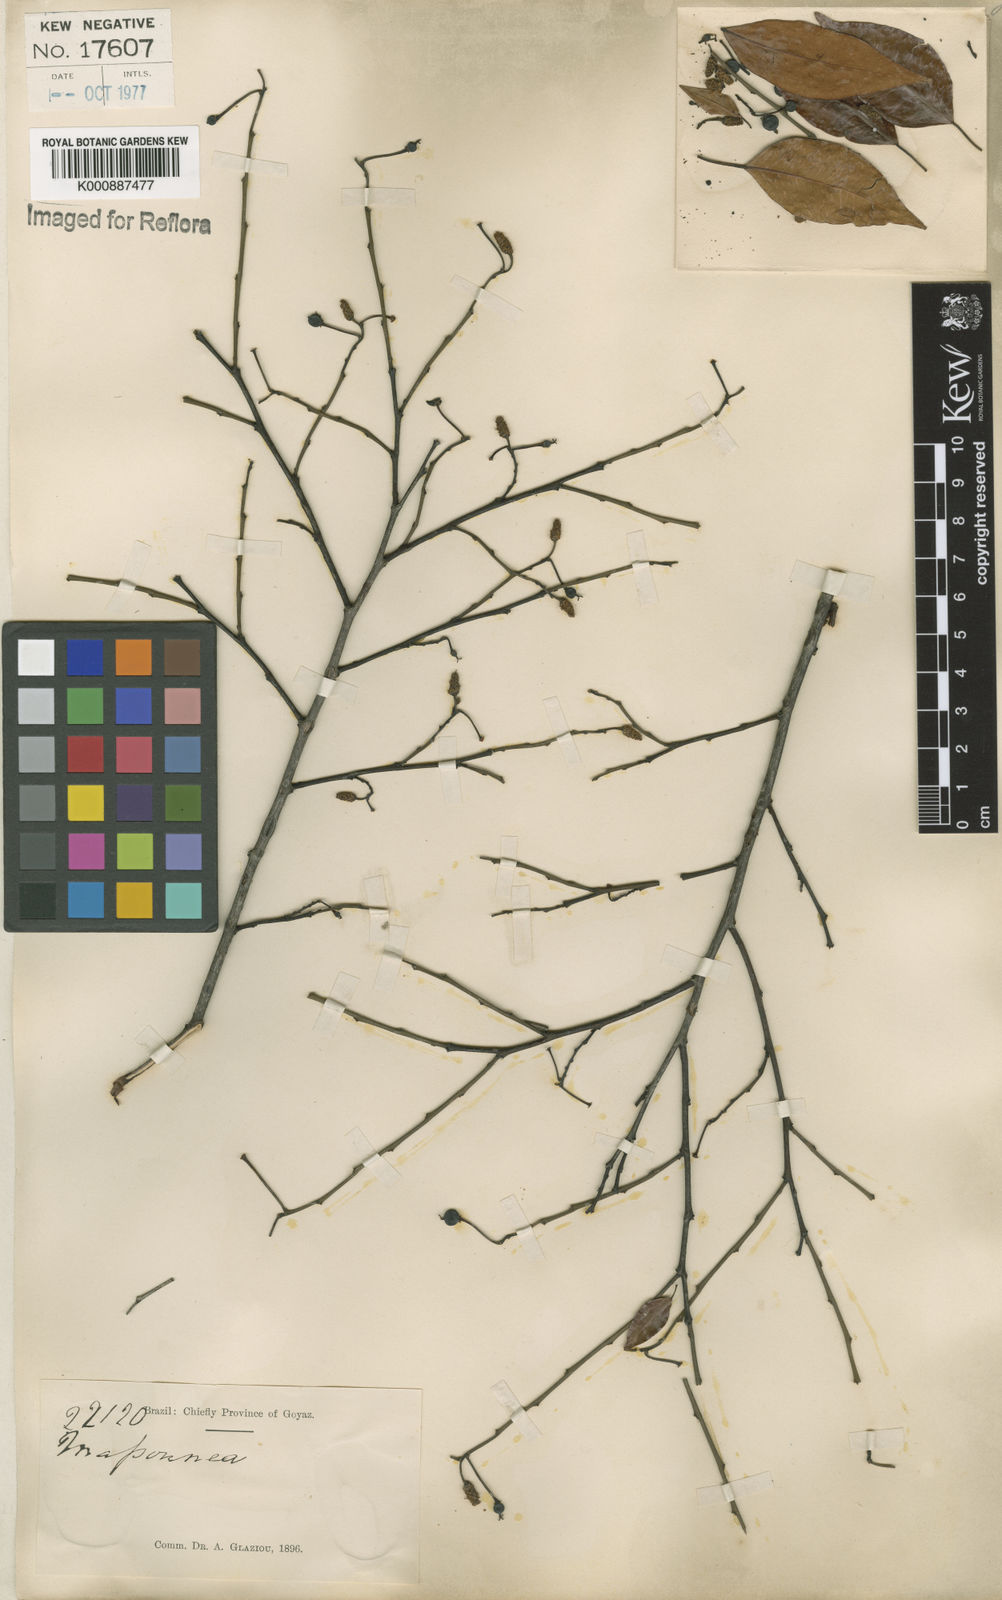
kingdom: Plantae
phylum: Tracheophyta
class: Magnoliopsida
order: Malpighiales
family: Euphorbiaceae
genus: Maprounea
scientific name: Maprounea brasiliensis
